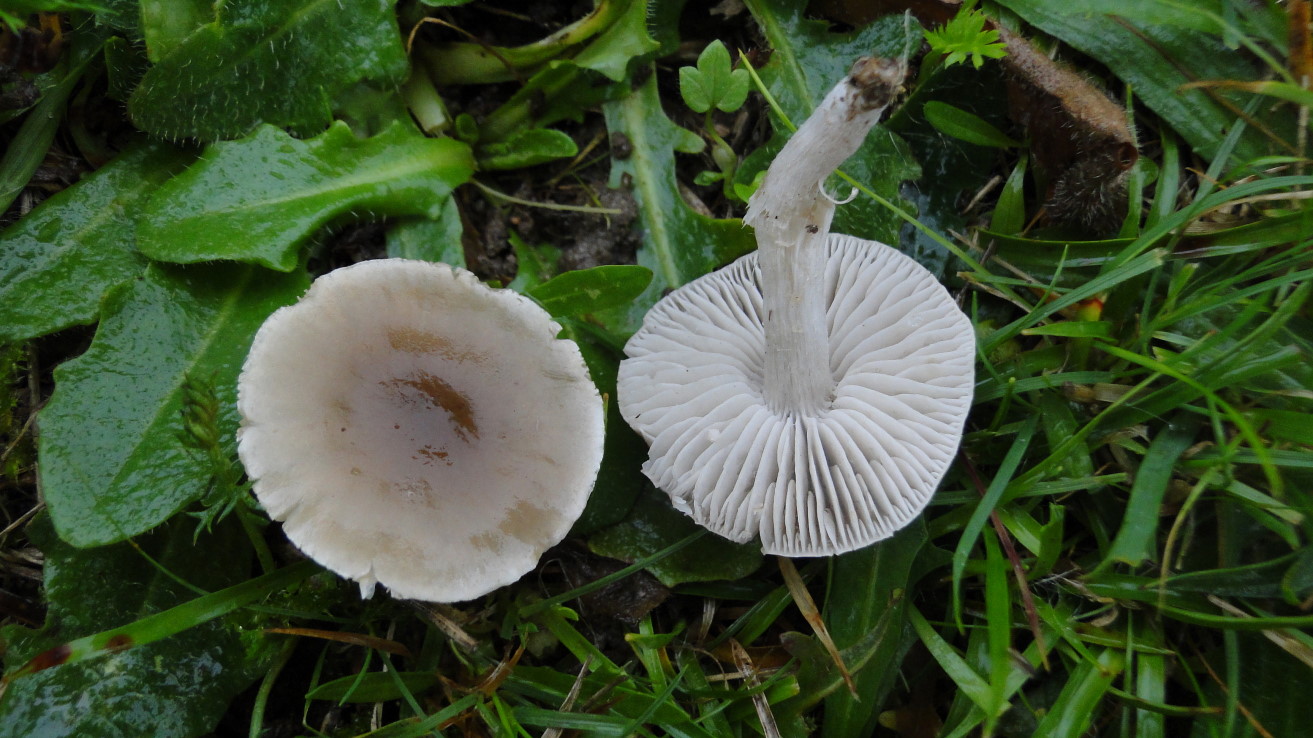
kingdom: Fungi
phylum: Basidiomycota
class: Agaricomycetes
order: Agaricales
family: Tricholomataceae
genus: Dermoloma
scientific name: Dermoloma cuneifolium
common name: eng-nonnehat
